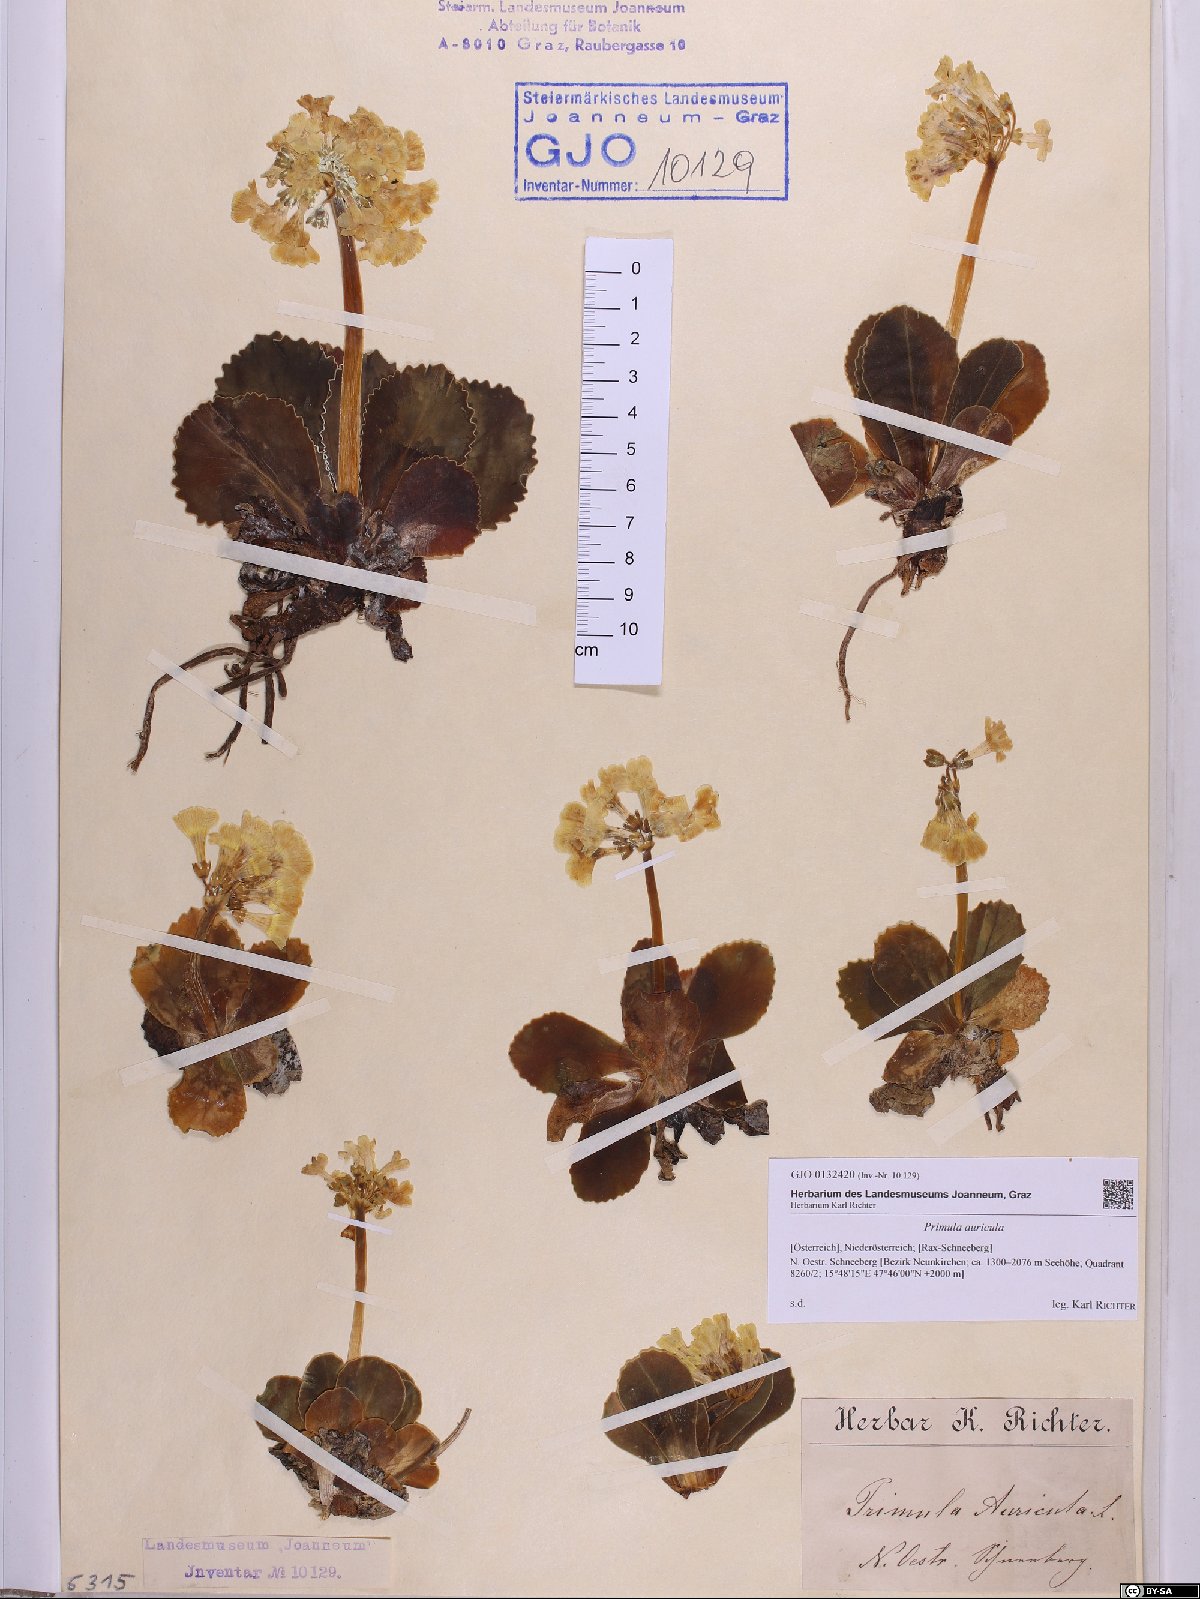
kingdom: Plantae
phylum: Tracheophyta
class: Magnoliopsida
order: Ericales
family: Primulaceae
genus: Primula
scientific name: Primula auricula
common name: Auricula
